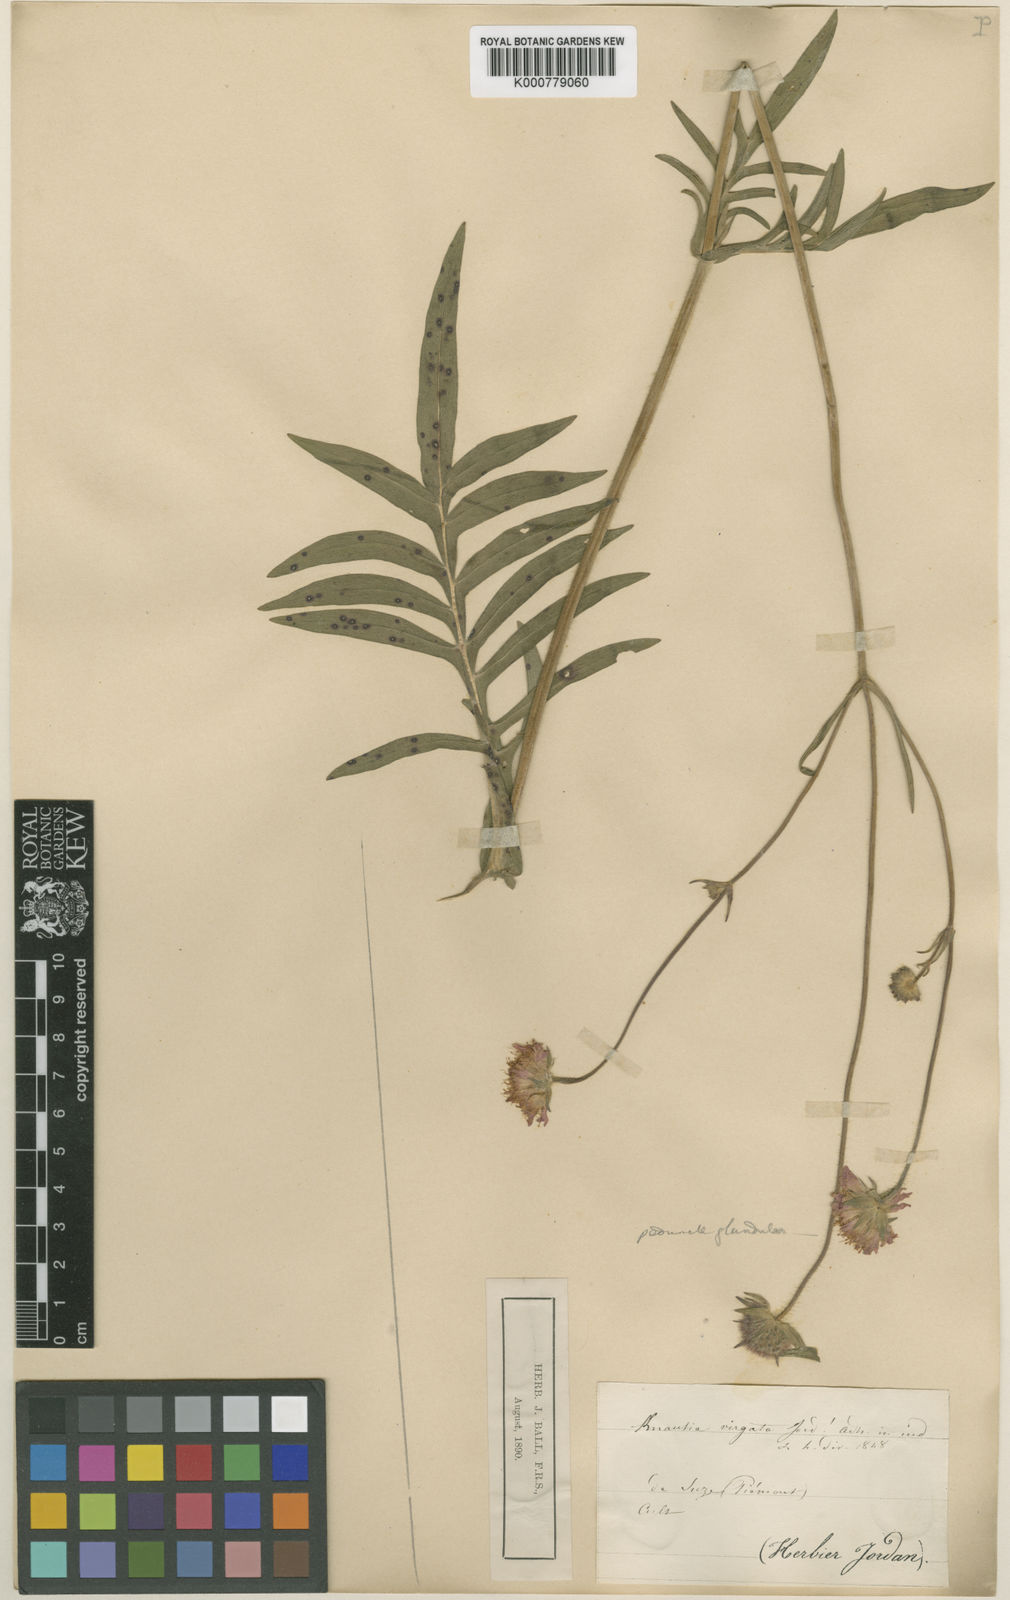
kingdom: Plantae
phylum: Tracheophyta
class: Magnoliopsida
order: Dipsacales
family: Caprifoliaceae
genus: Knautia
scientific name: Knautia
